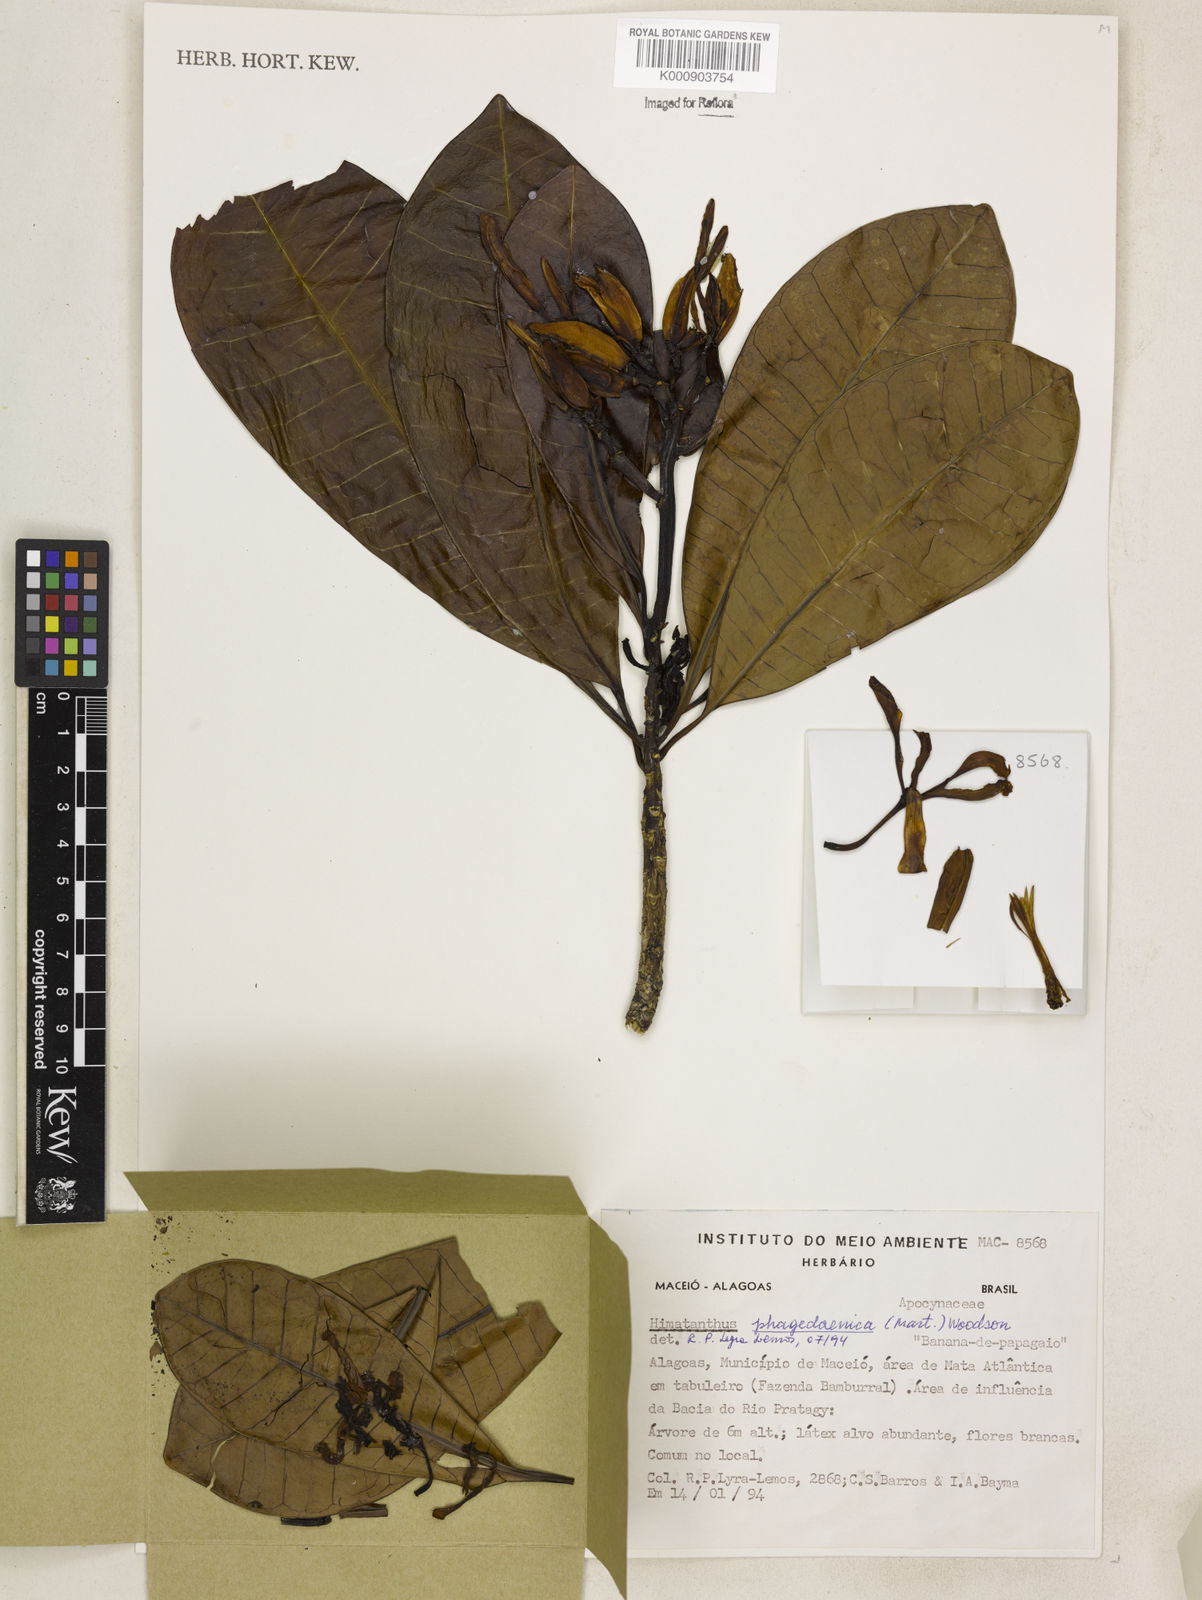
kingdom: Plantae
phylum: Tracheophyta
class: Magnoliopsida
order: Gentianales
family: Apocynaceae
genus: Himatanthus
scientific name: Himatanthus phagedaenicus
